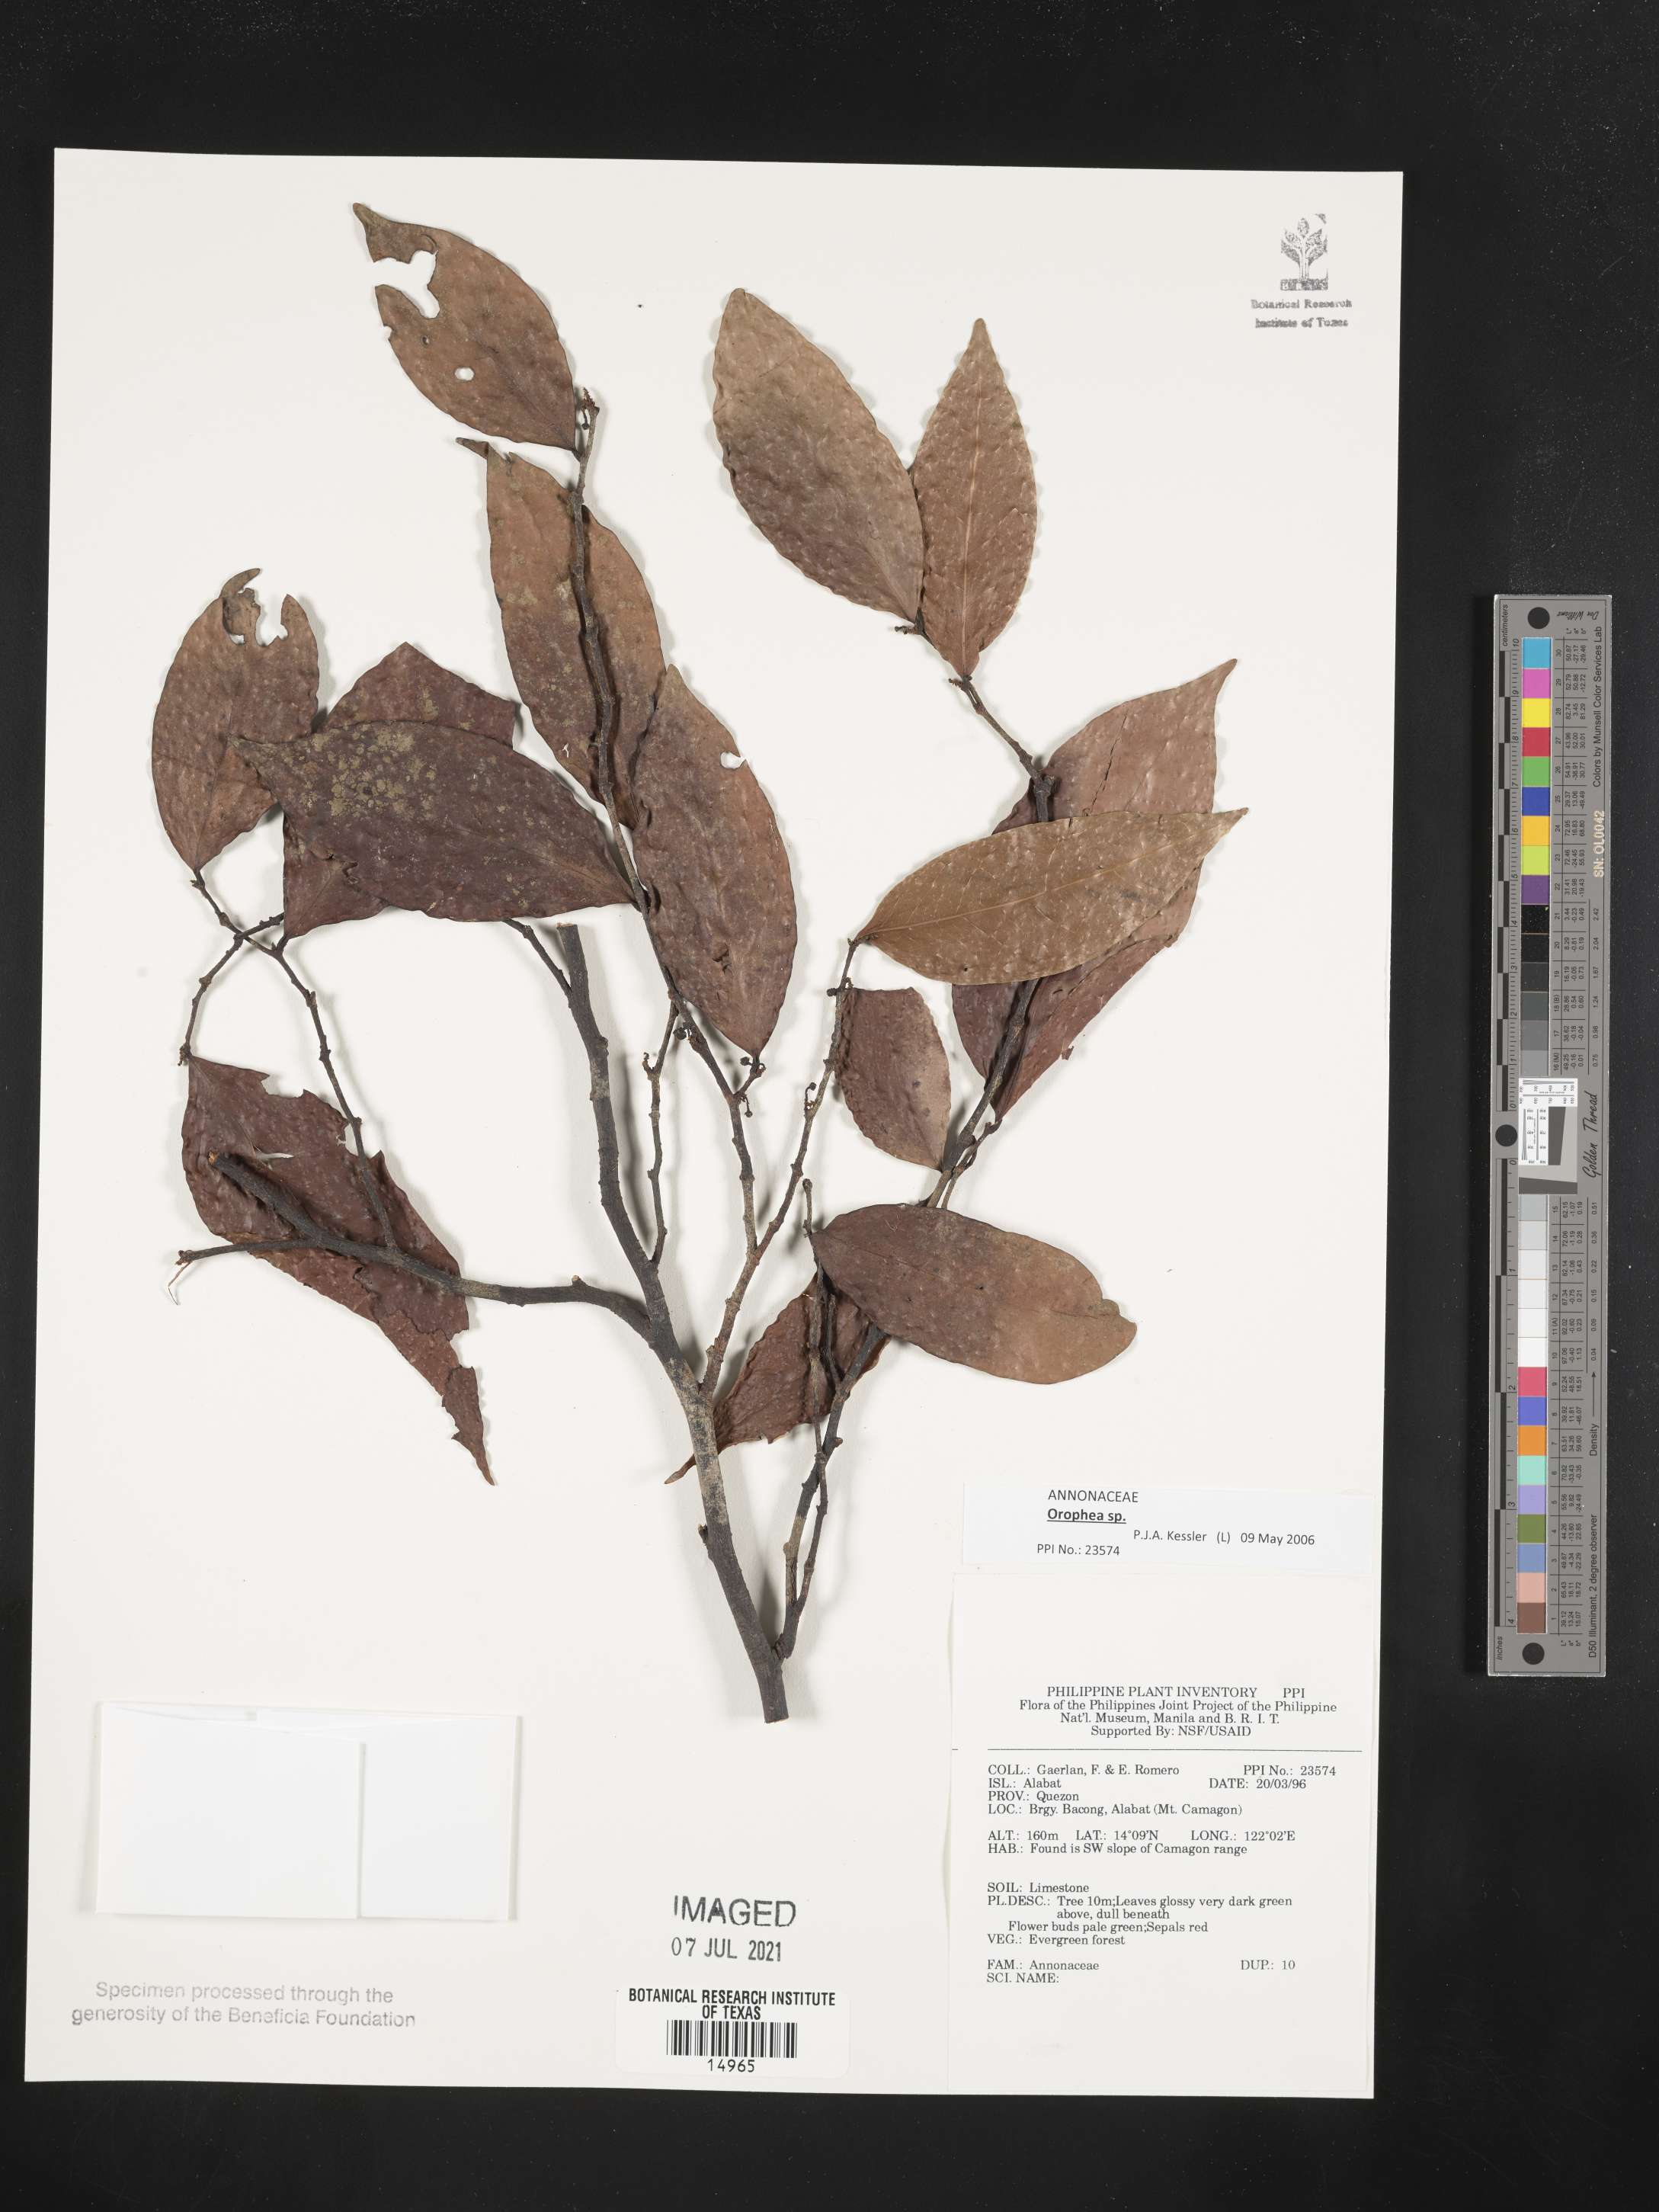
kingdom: Plantae
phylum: Tracheophyta
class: Magnoliopsida
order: Magnoliales
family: Annonaceae
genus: Orophea
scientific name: Orophea
